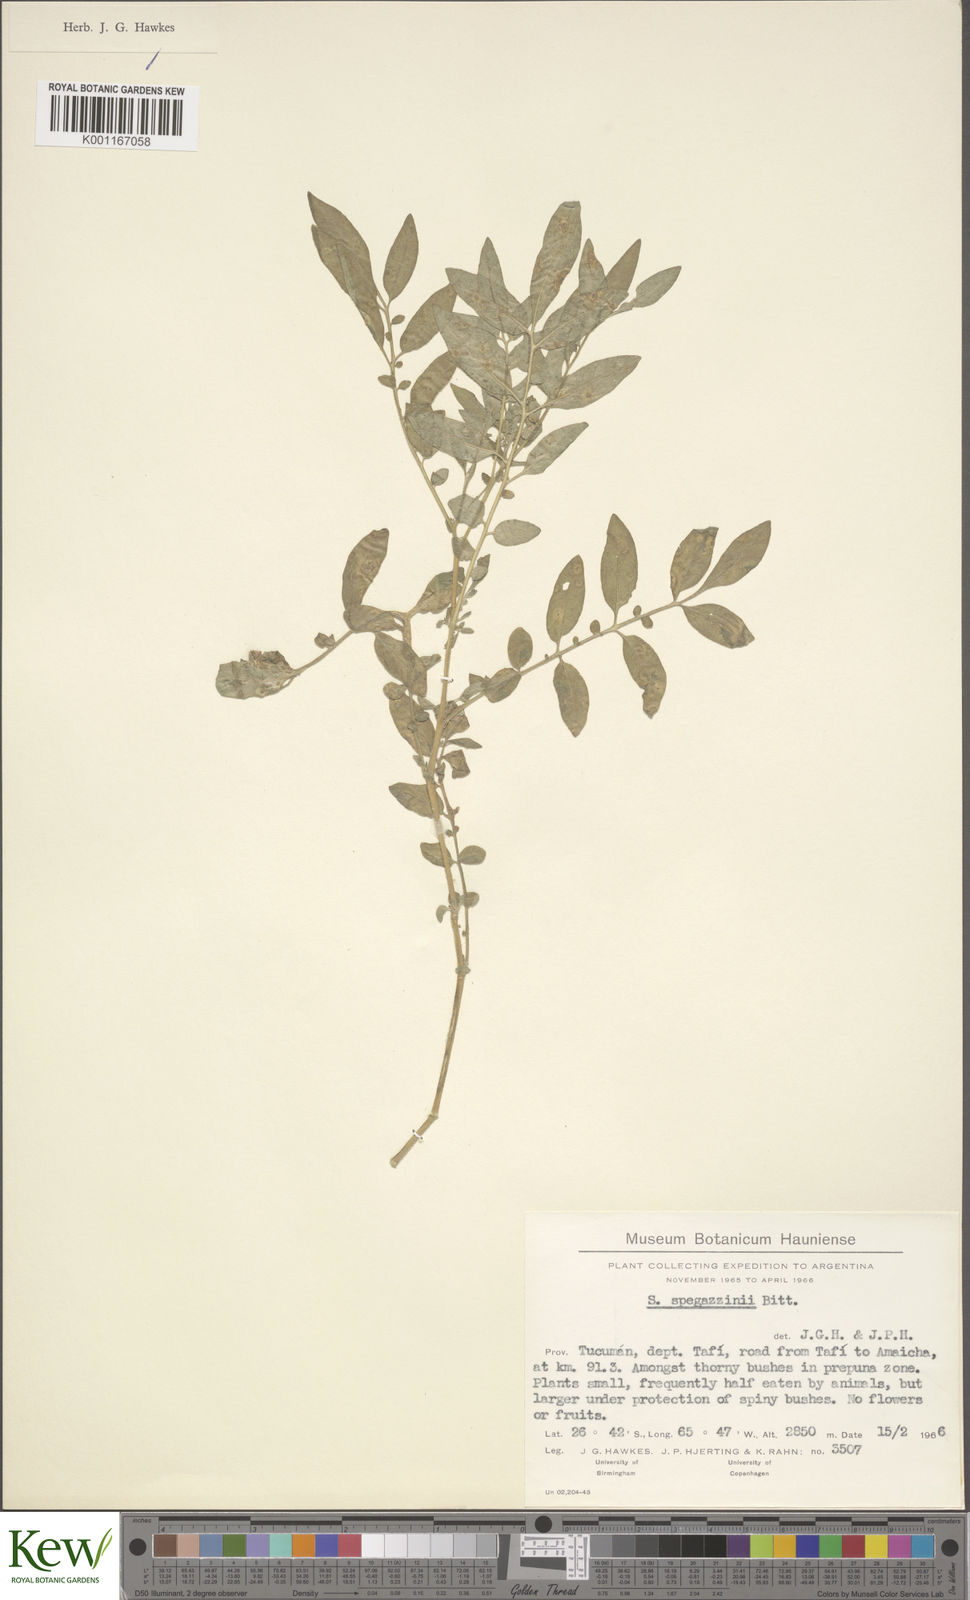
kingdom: Plantae
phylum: Tracheophyta
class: Magnoliopsida
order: Solanales
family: Solanaceae
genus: Solanum
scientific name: Solanum brevicaule
